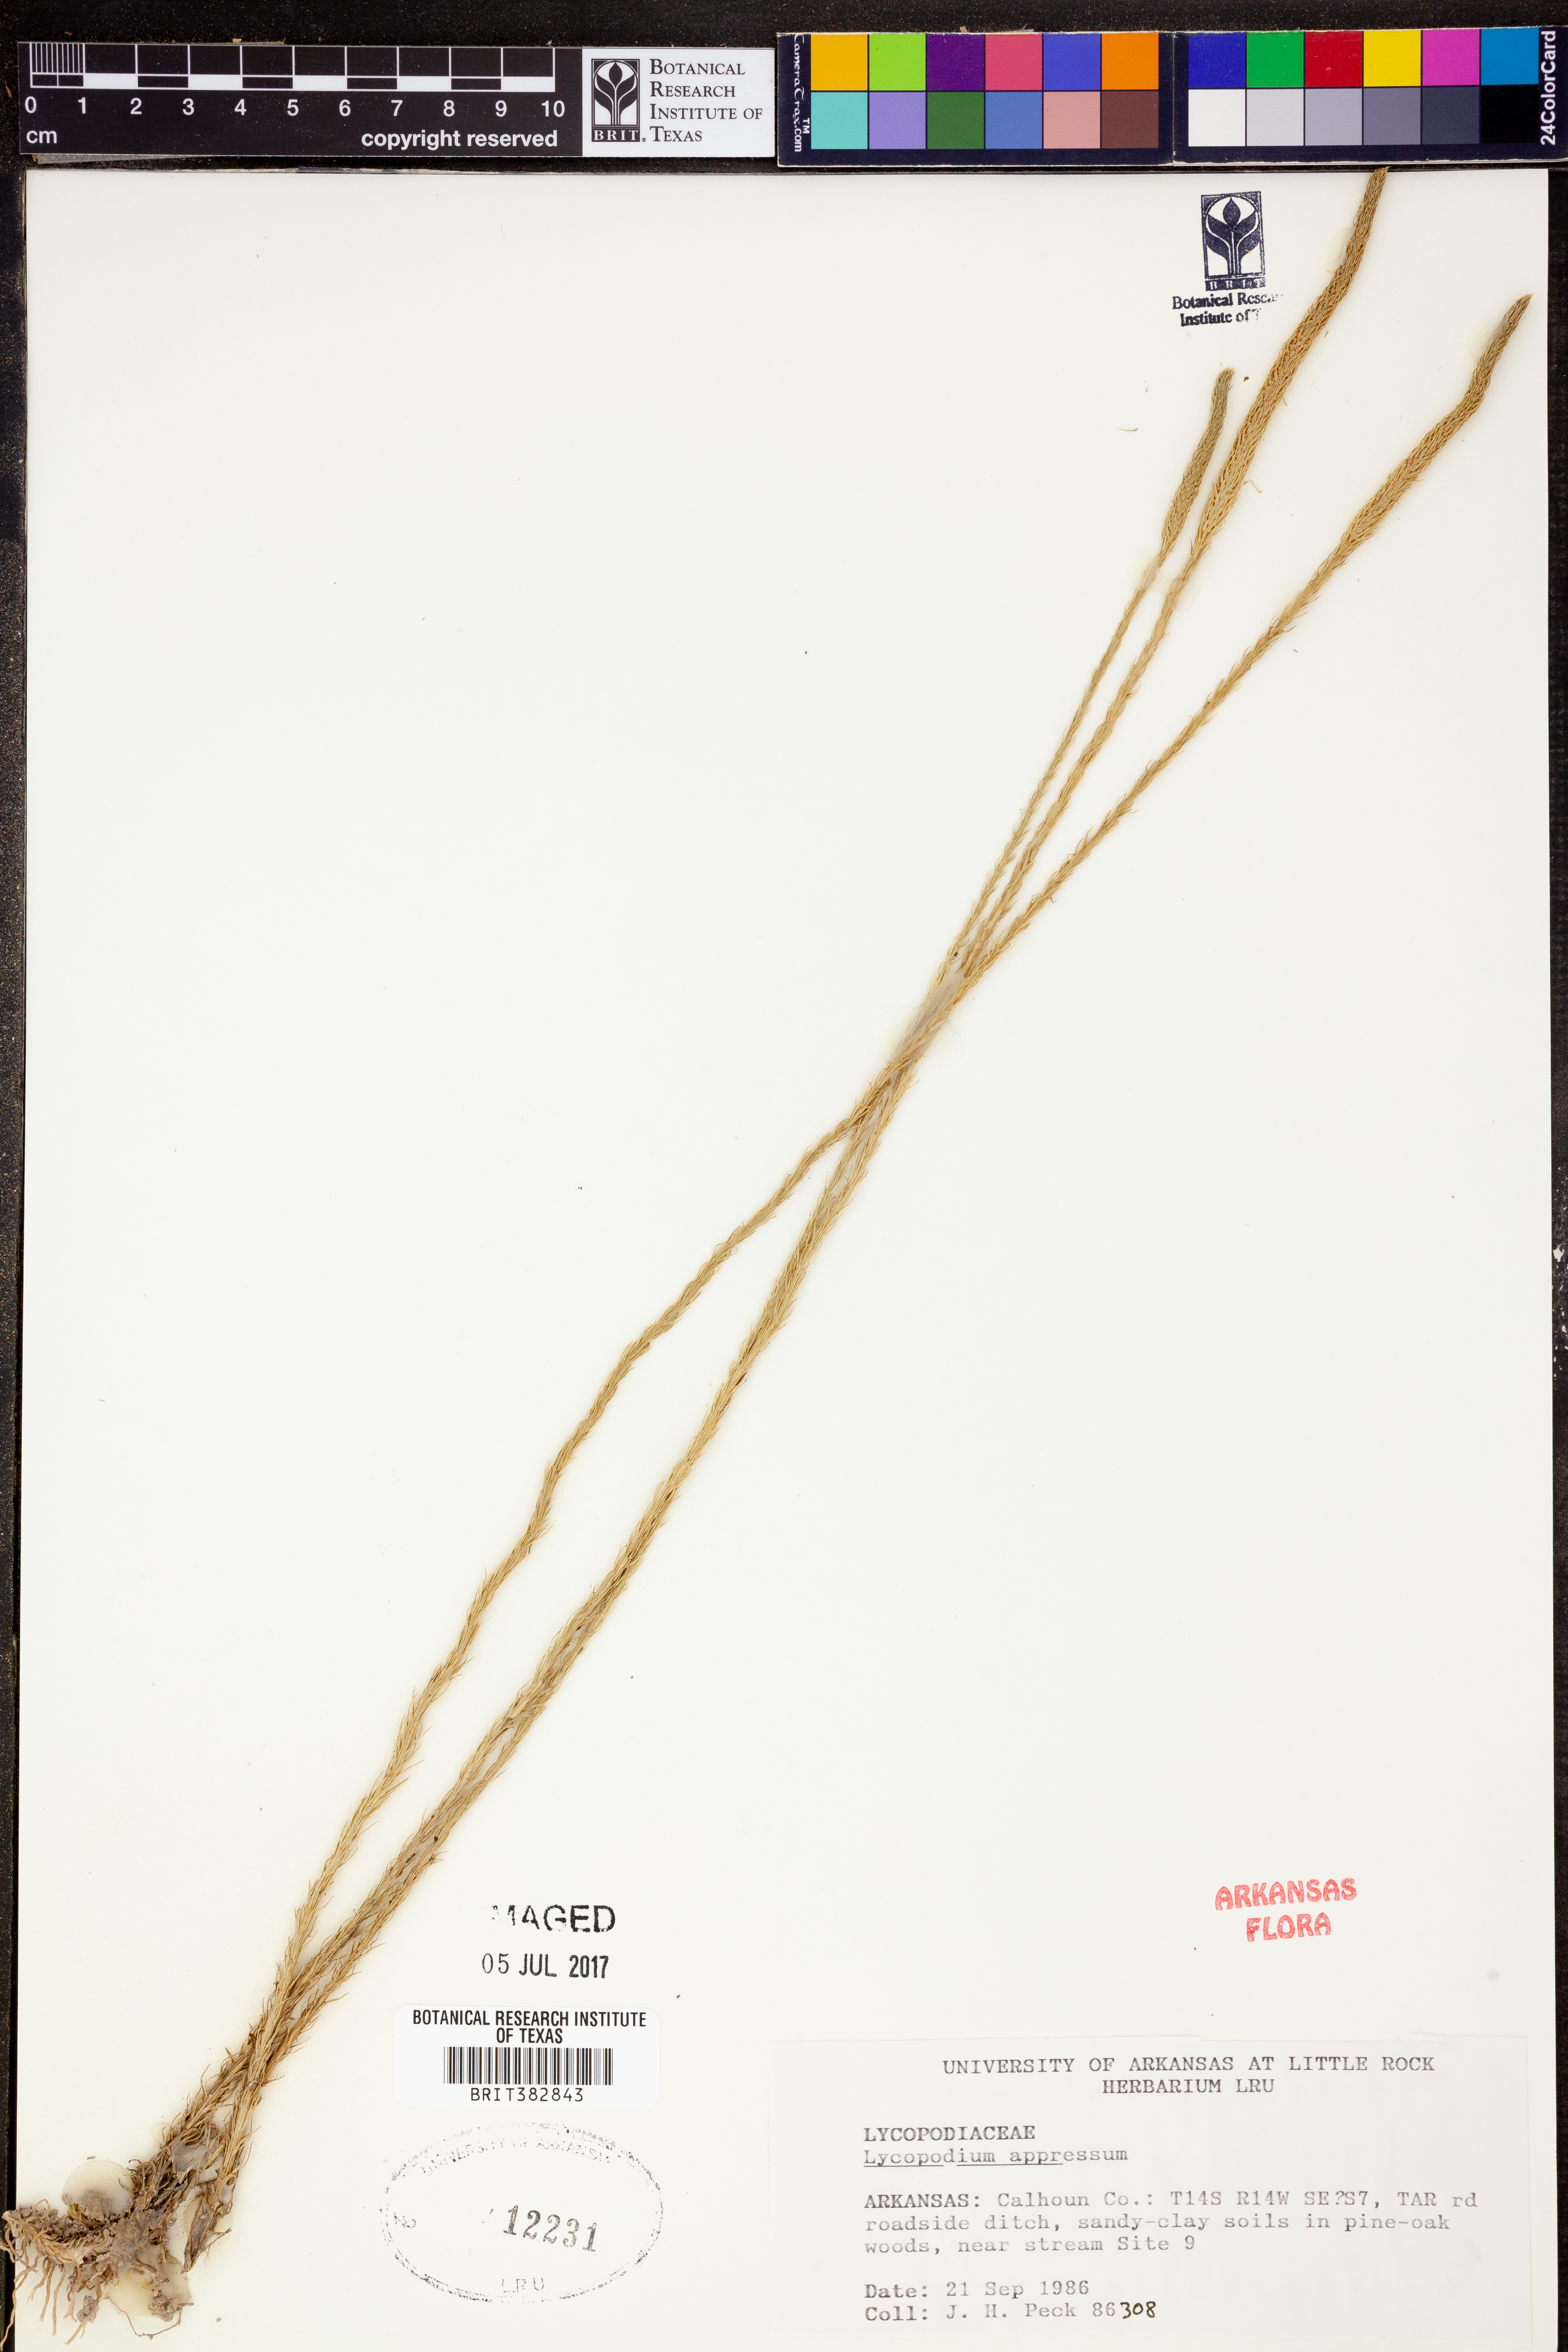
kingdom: Plantae
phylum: Tracheophyta
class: Lycopodiopsida
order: Lycopodiales
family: Lycopodiaceae
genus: Lycopodiella
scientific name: Lycopodiella appressa
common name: Appressed bog clubmoss
